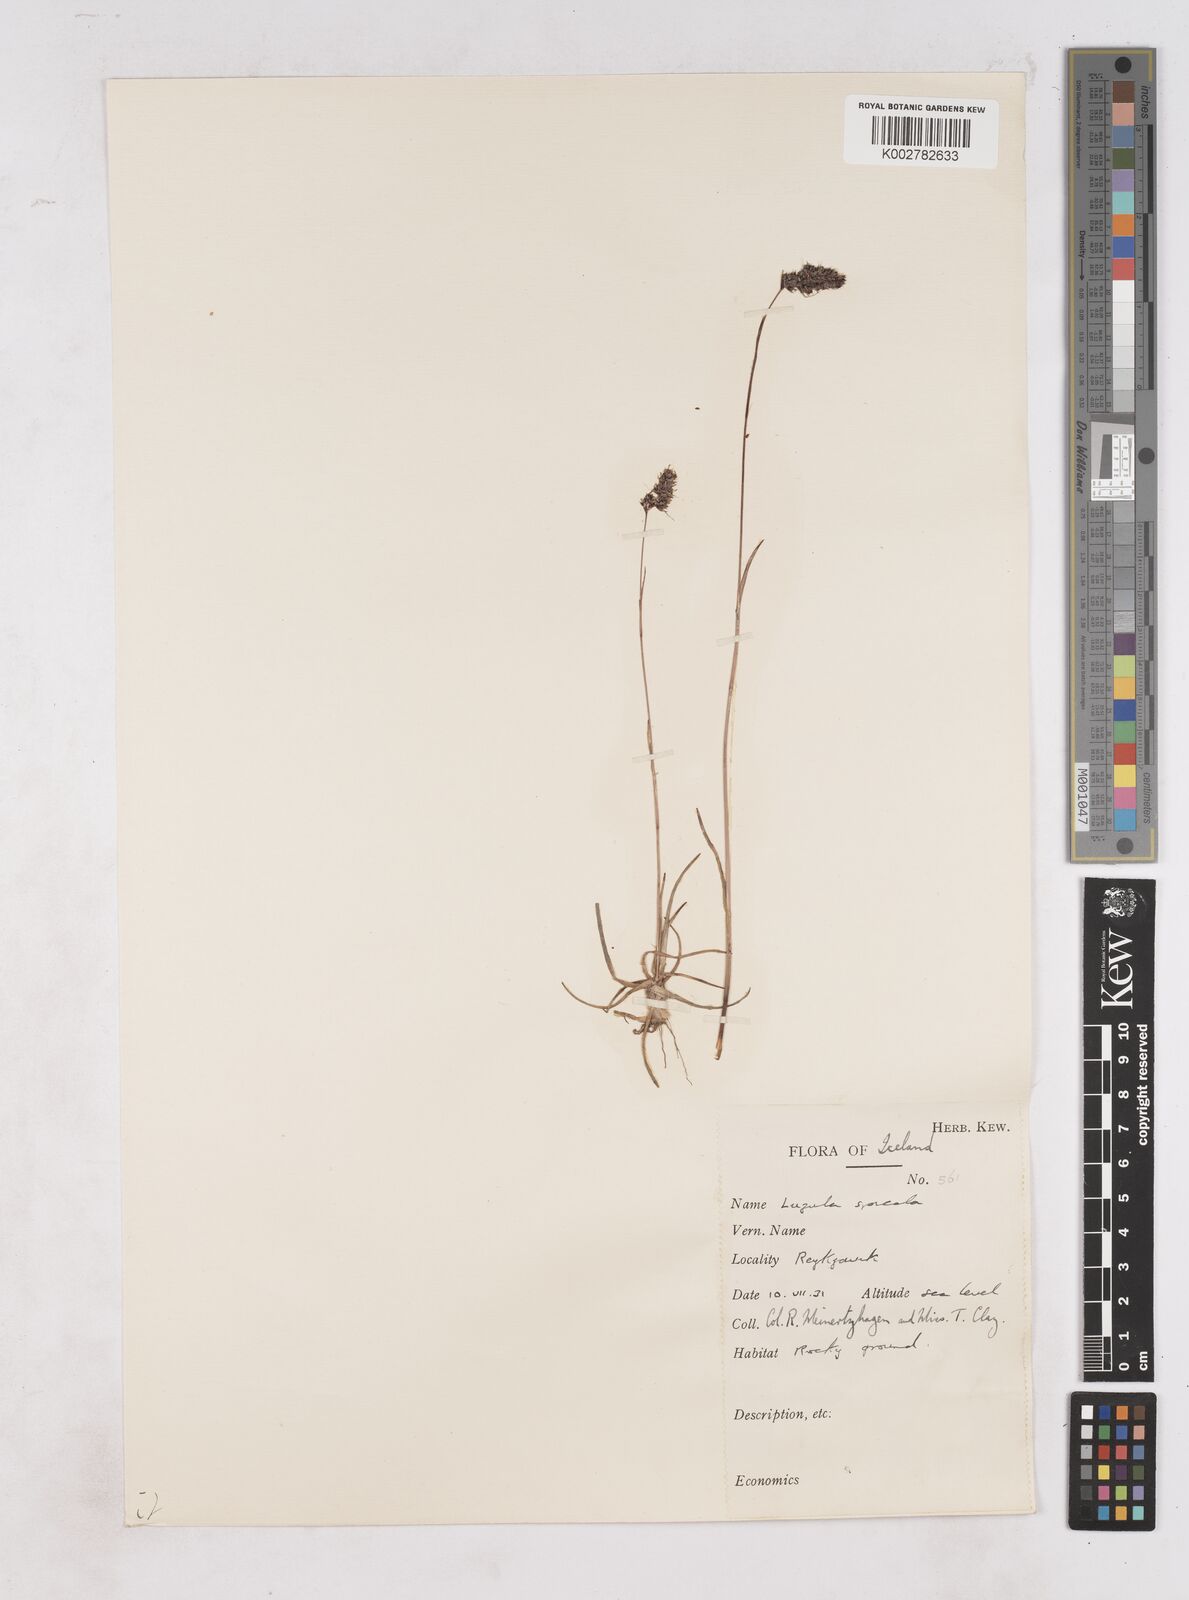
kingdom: Plantae
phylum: Tracheophyta
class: Liliopsida
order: Poales
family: Juncaceae
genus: Luzula
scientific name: Luzula spicata
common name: Spiked wood-rush
